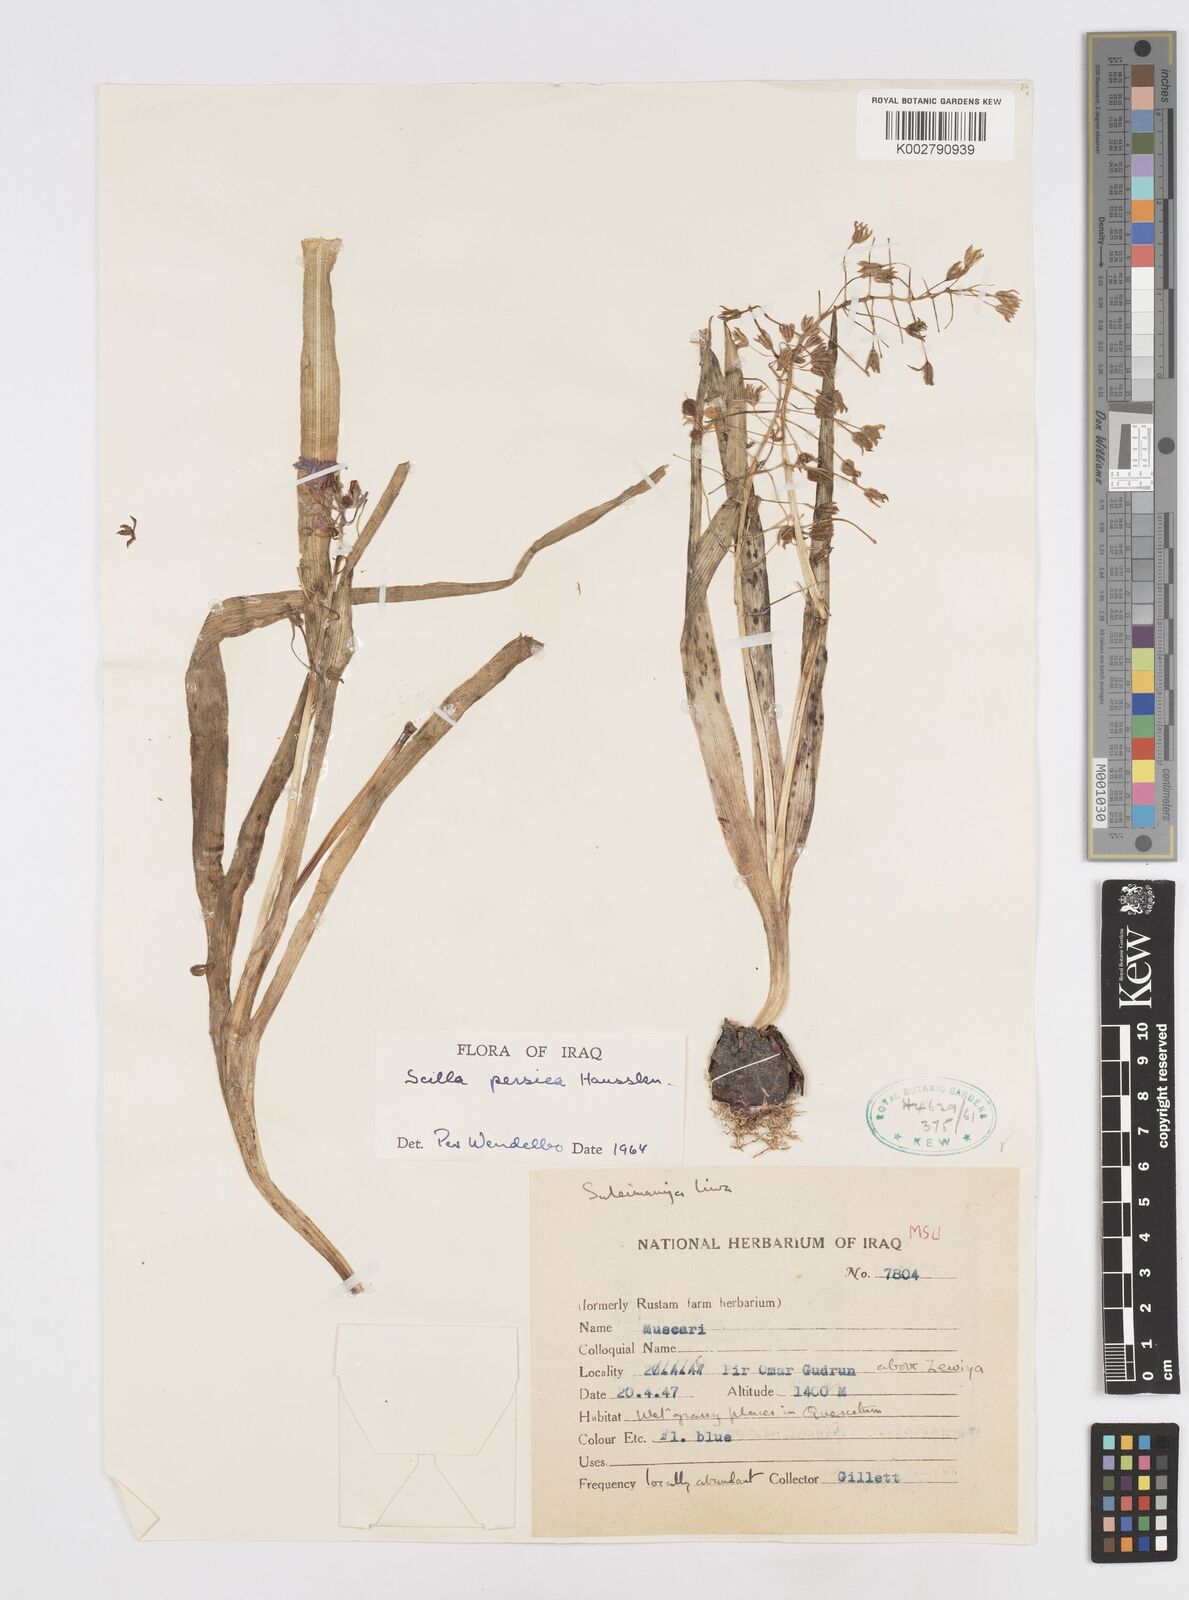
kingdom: Plantae
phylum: Tracheophyta
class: Liliopsida
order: Asparagales
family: Asparagaceae
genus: Zagrosia
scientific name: Zagrosia persica
